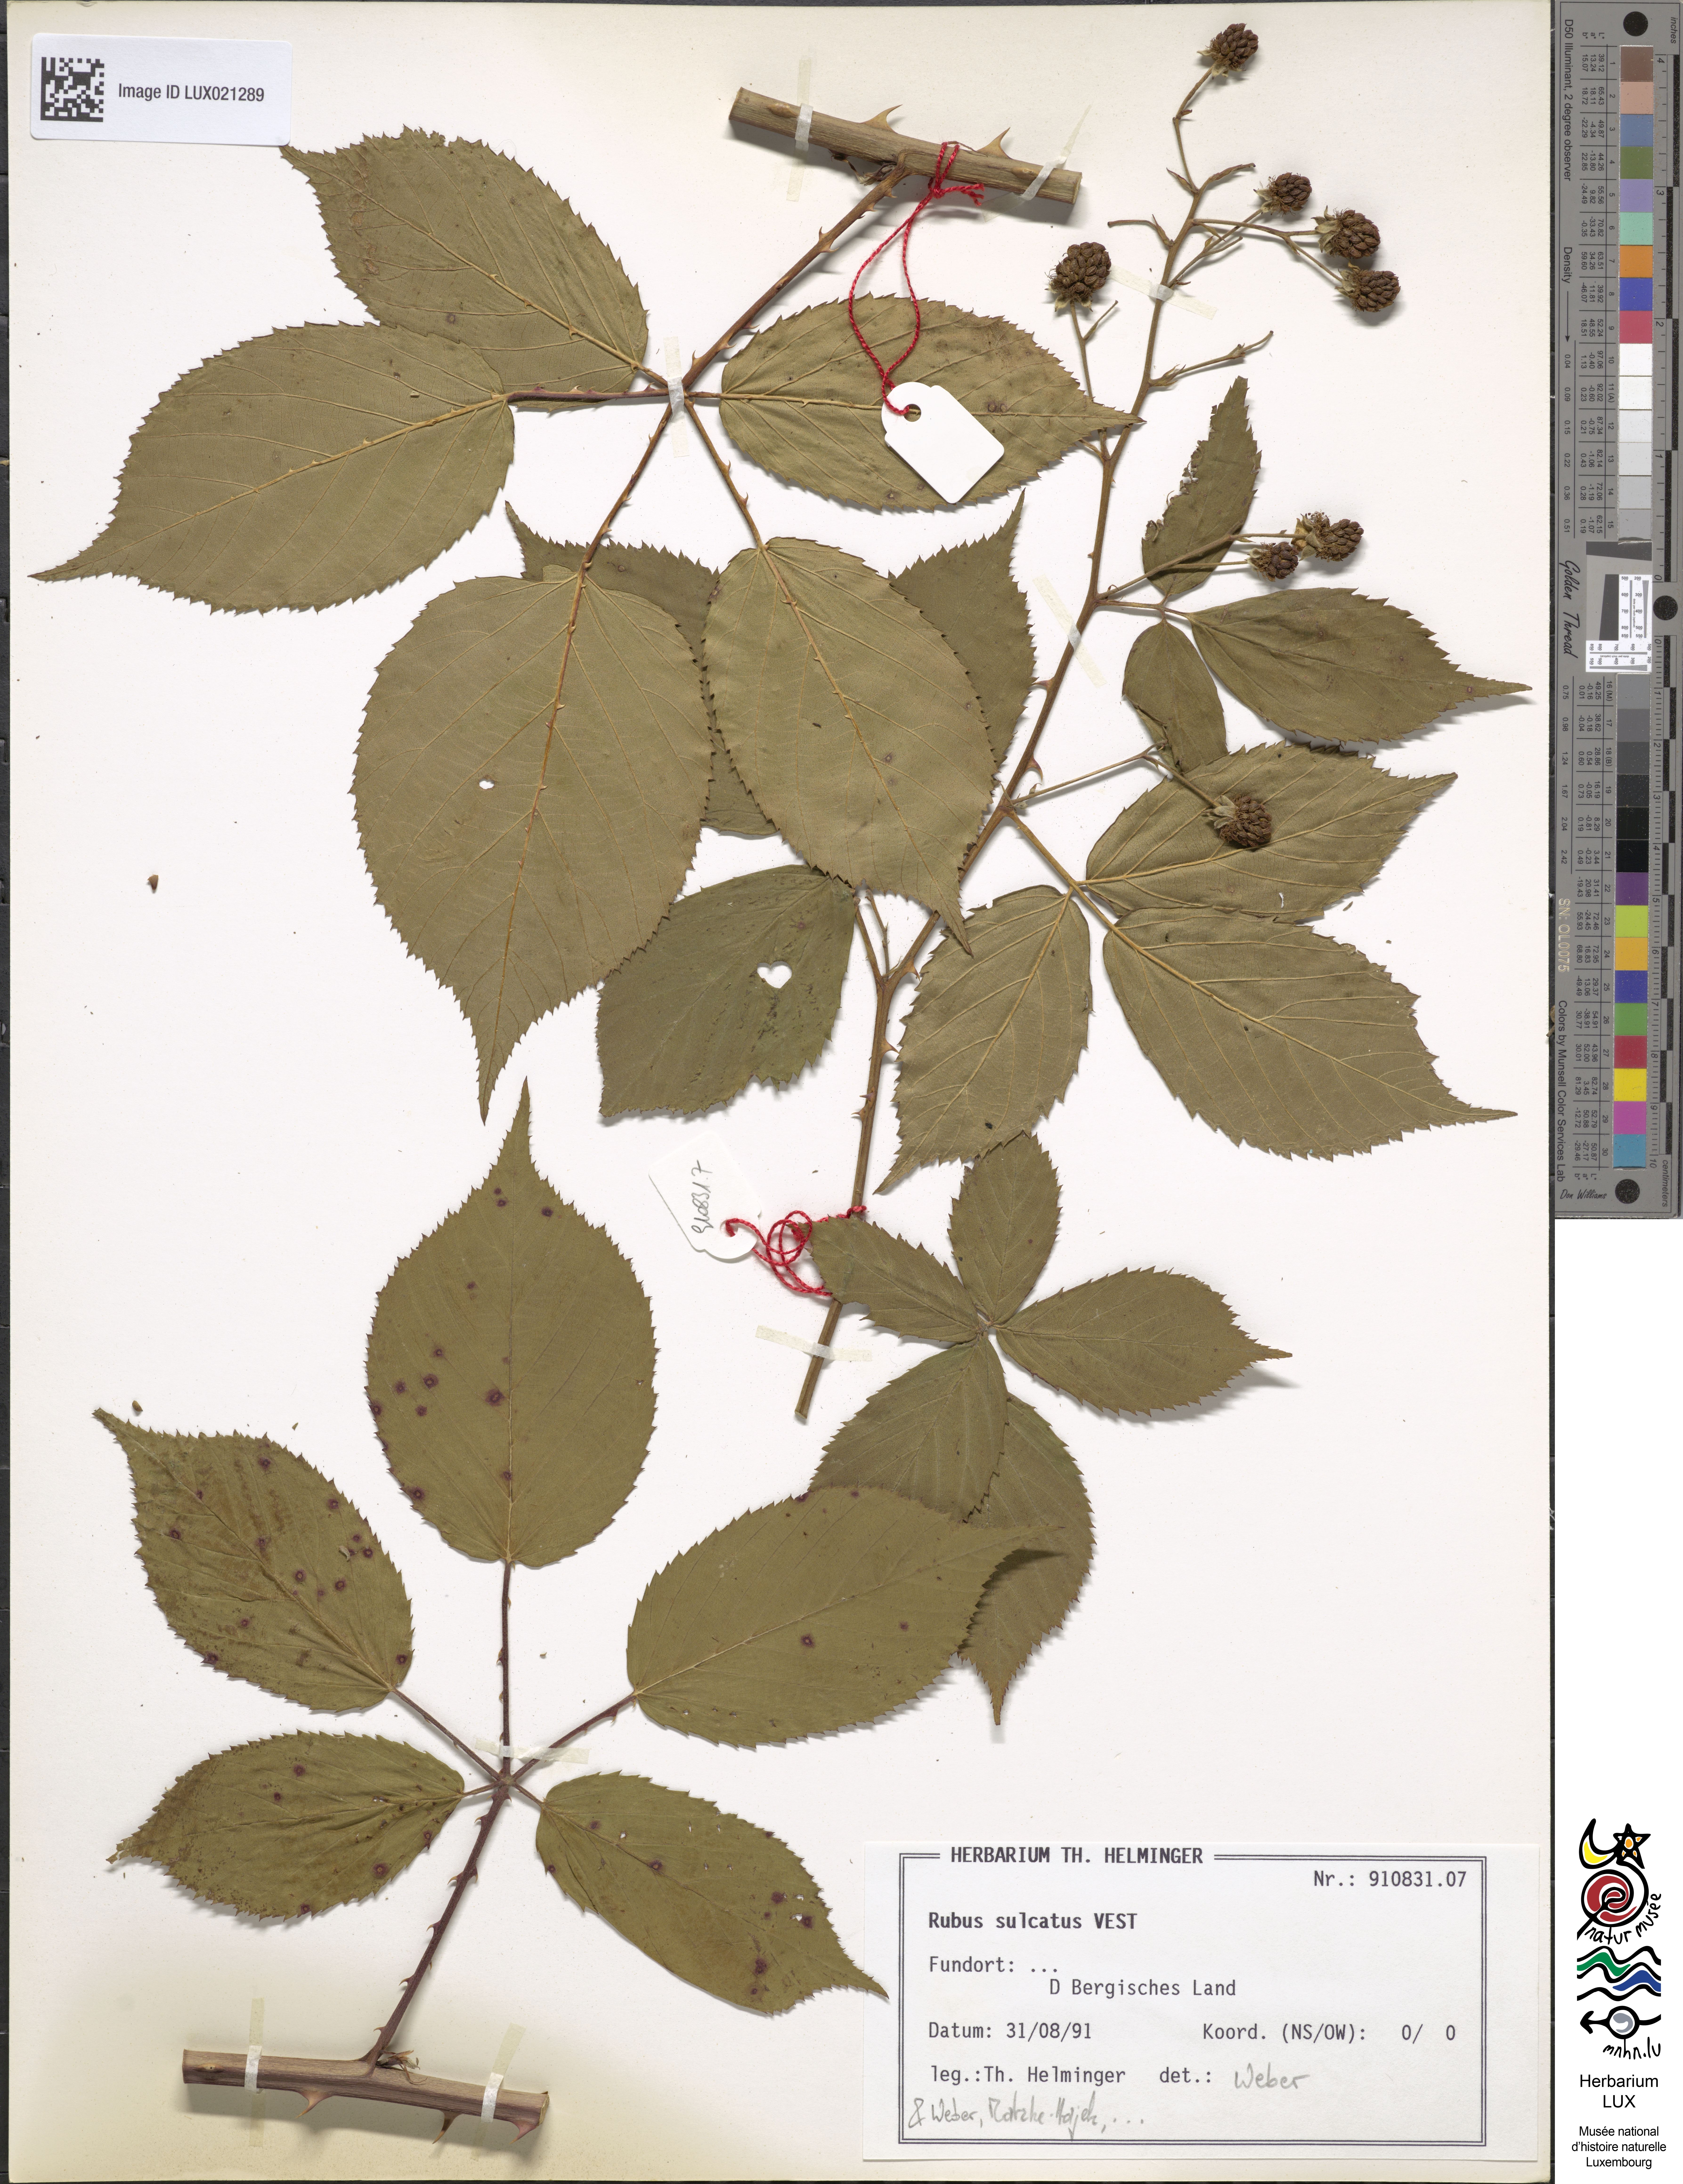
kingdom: Plantae
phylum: Tracheophyta
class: Magnoliopsida
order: Rosales
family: Rosaceae
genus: Rubus
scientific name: Rubus sulcatus
